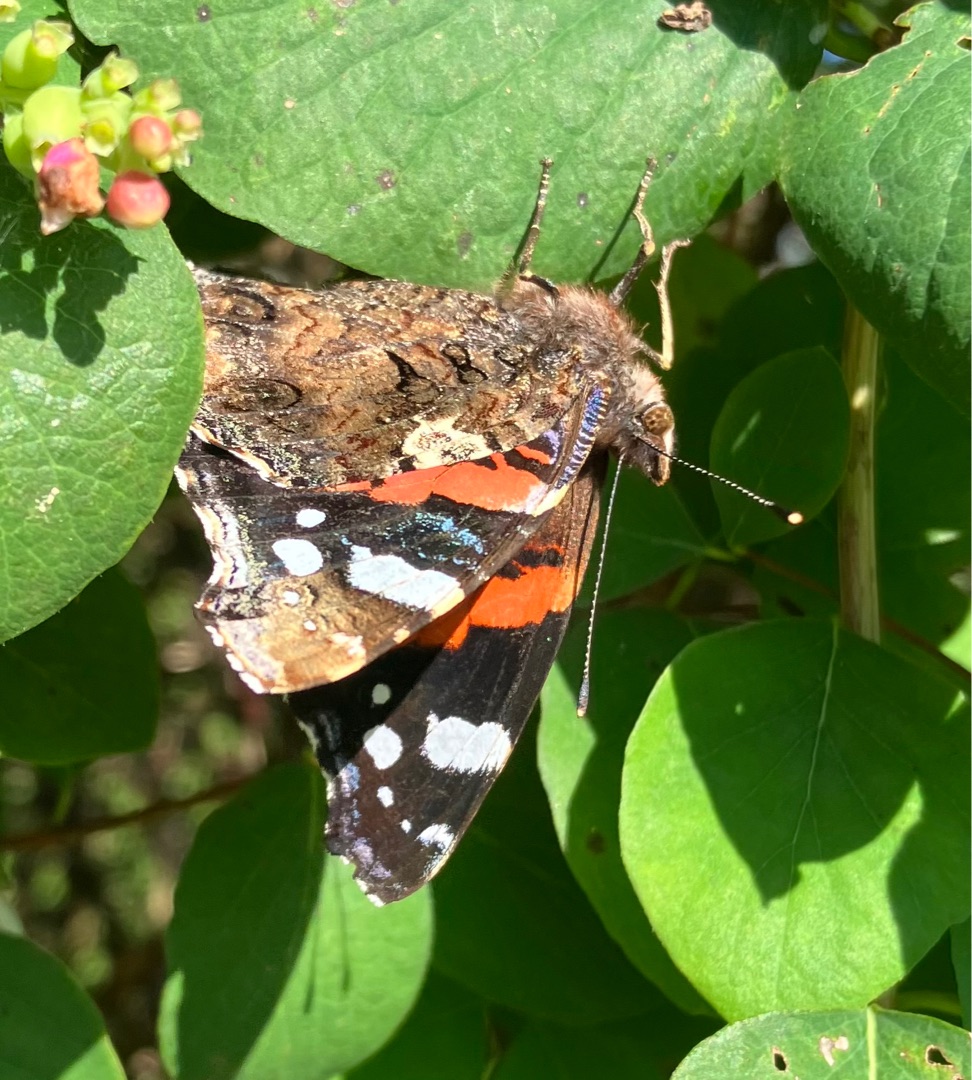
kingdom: Animalia
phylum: Arthropoda
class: Insecta
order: Lepidoptera
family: Nymphalidae
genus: Vanessa
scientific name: Vanessa atalanta
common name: Admiral
